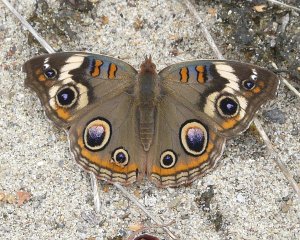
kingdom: Animalia
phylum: Arthropoda
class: Insecta
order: Lepidoptera
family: Nymphalidae
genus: Junonia
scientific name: Junonia coenia
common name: Common Buckeye
